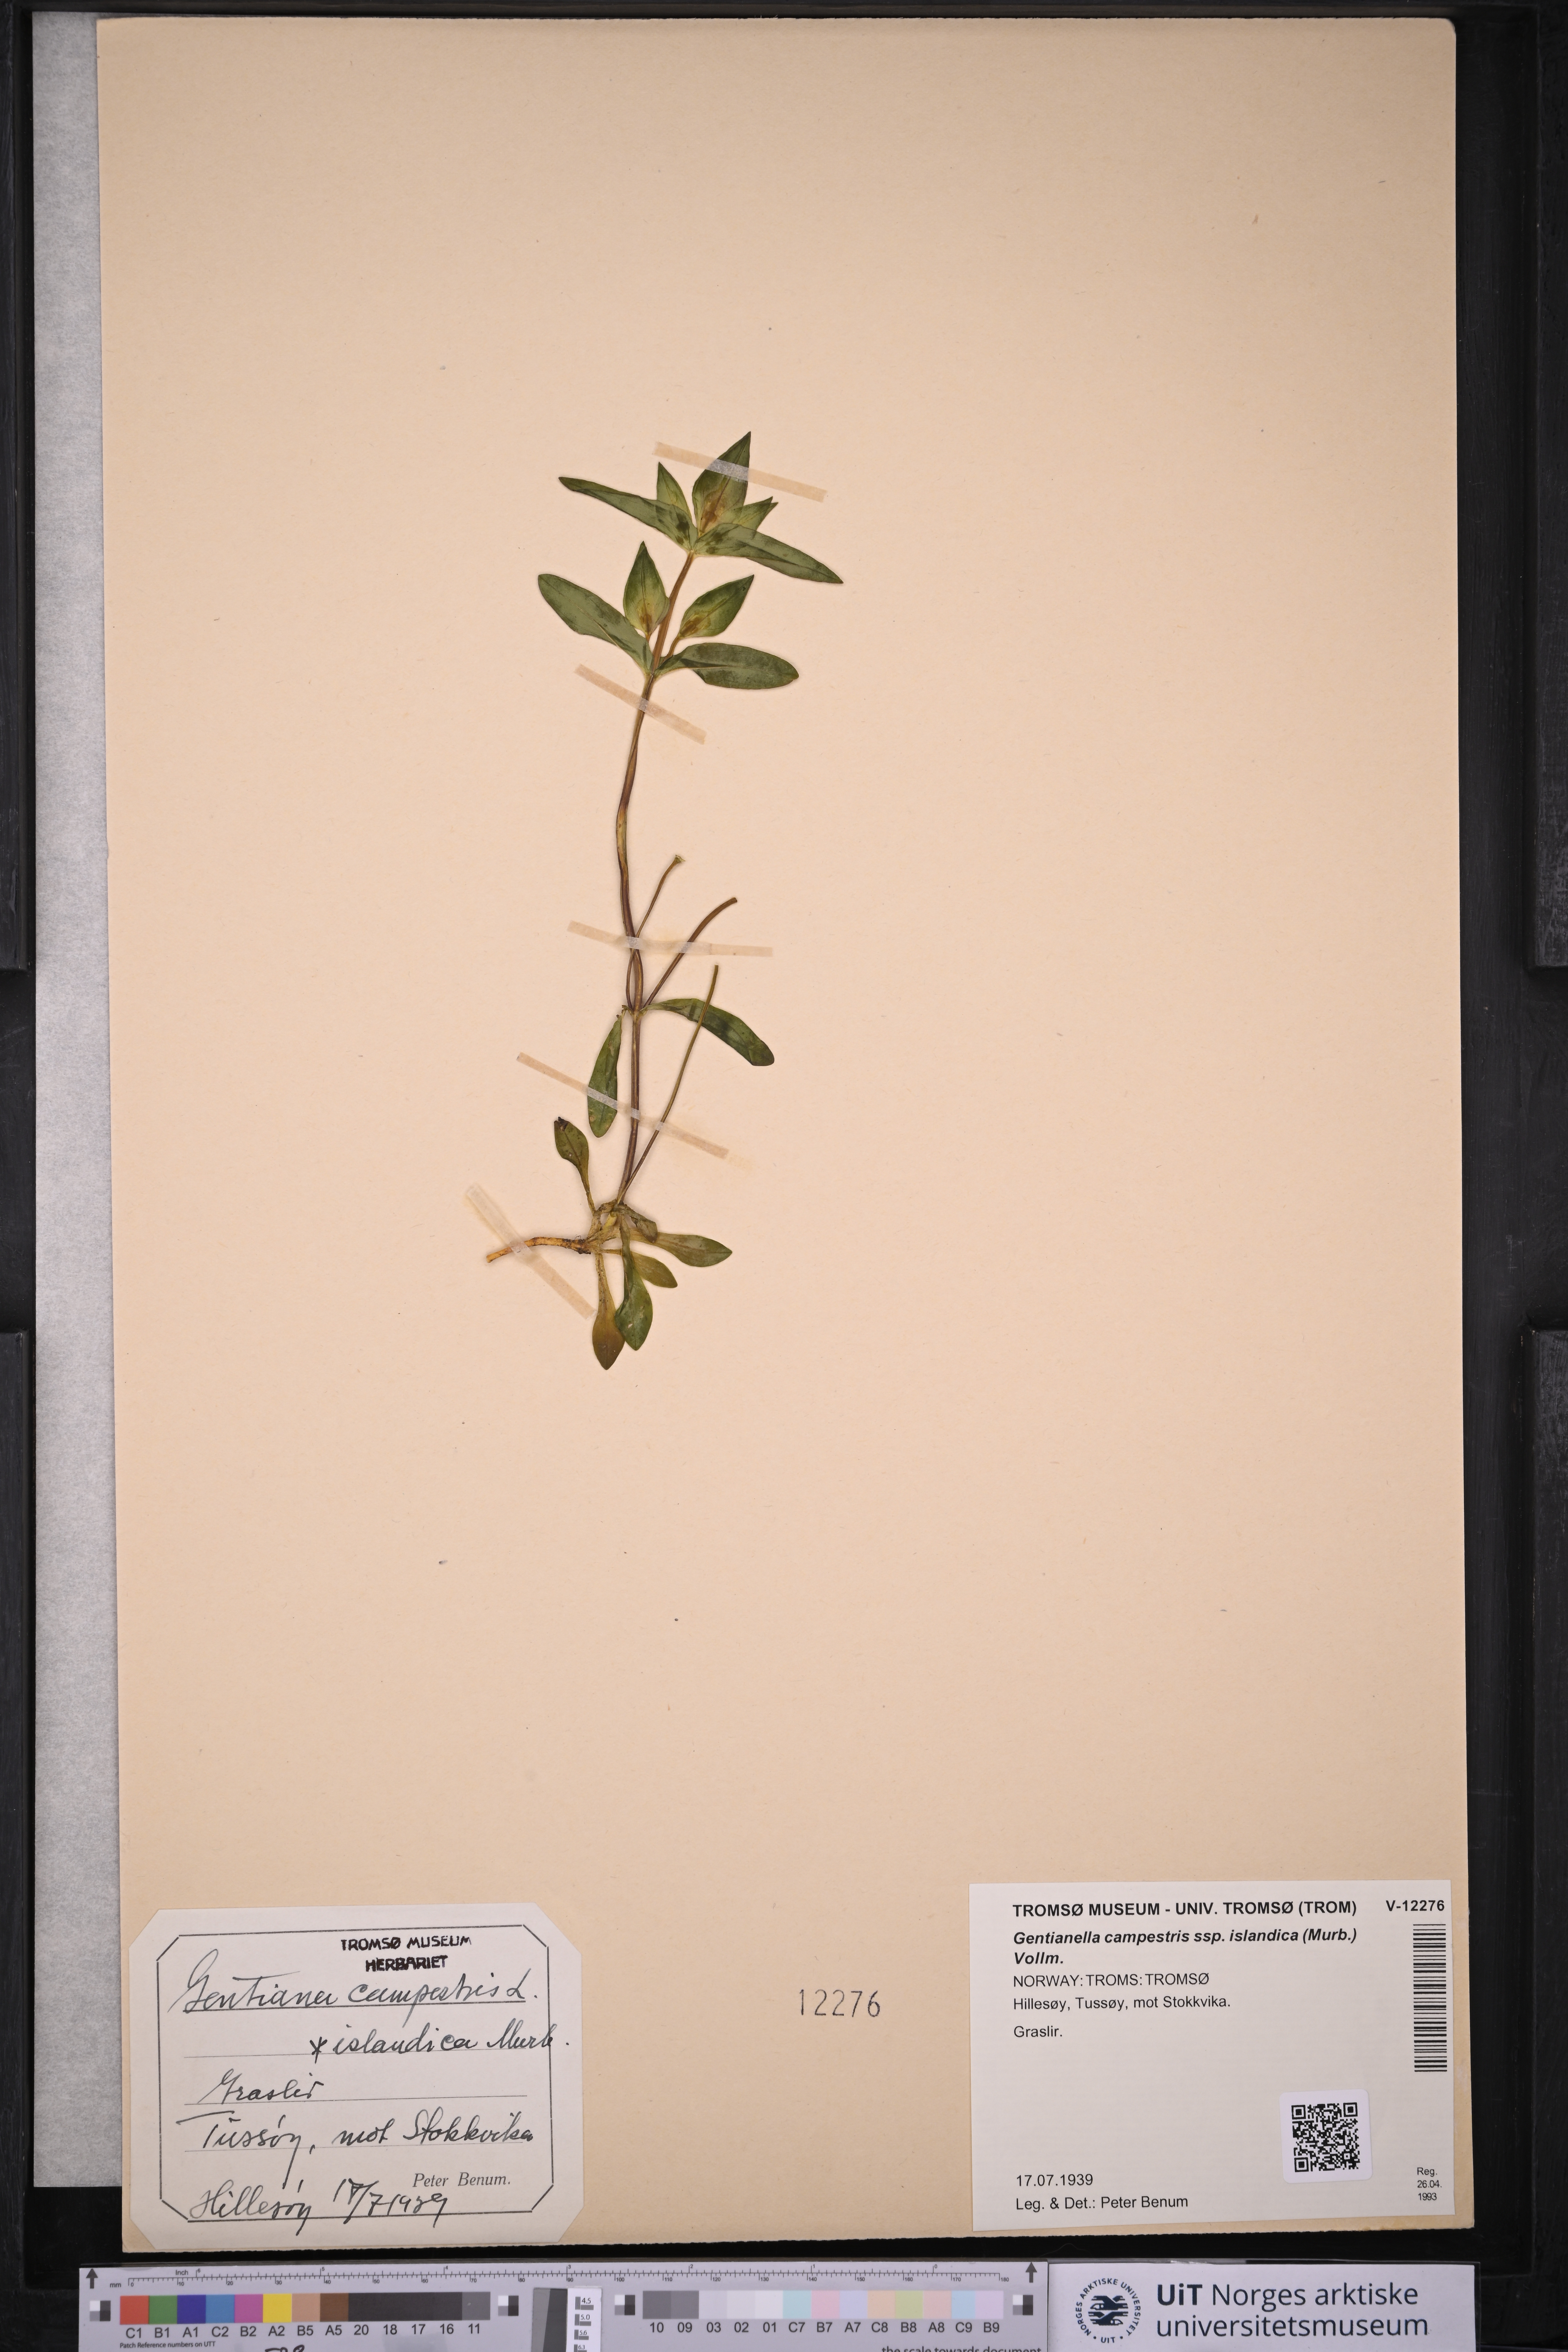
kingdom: Plantae
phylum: Tracheophyta
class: Magnoliopsida
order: Gentianales
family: Gentianaceae
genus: Gentianella
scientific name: Gentianella campestris
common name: Field gentian
